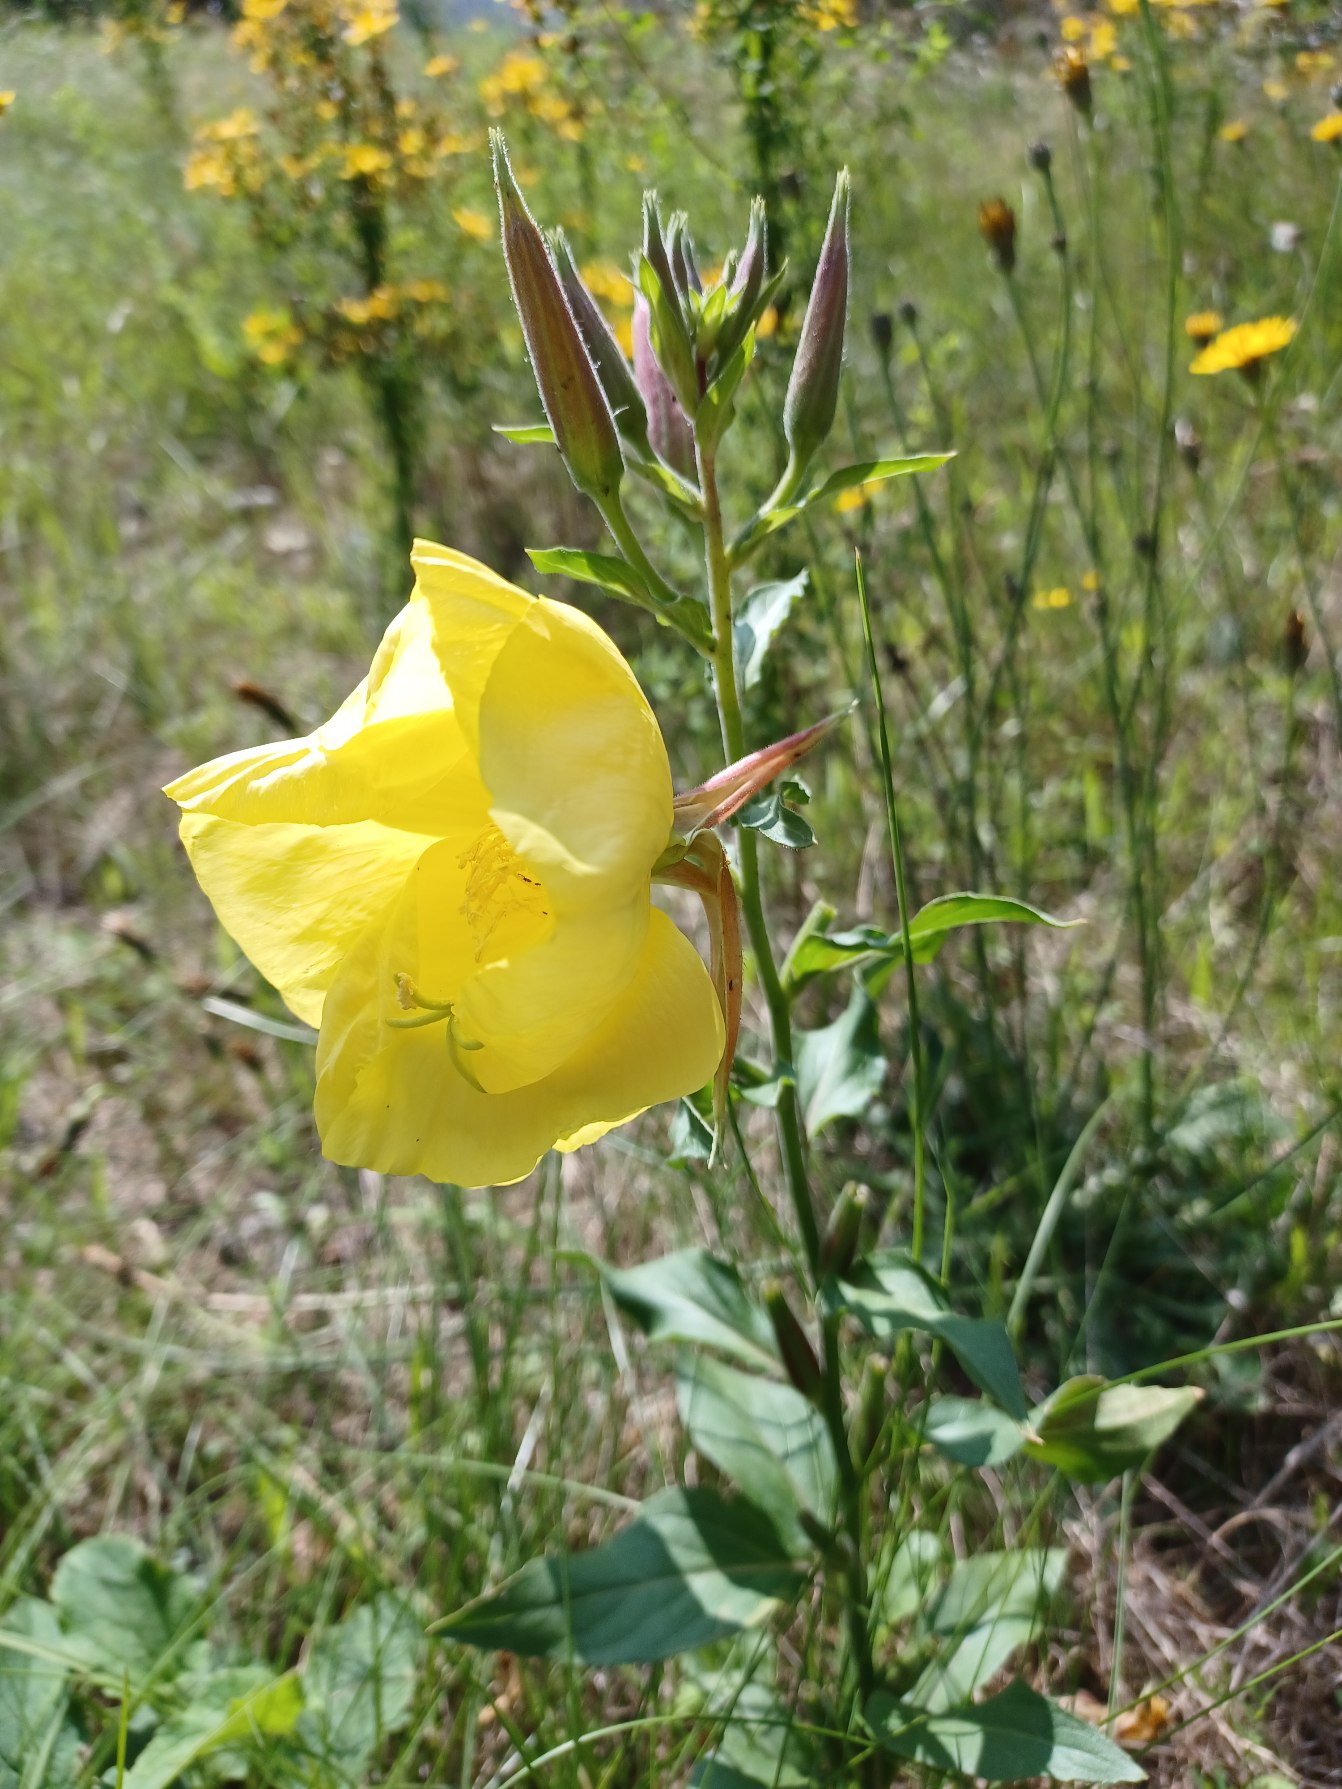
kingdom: Plantae
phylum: Tracheophyta
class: Magnoliopsida
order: Myrtales
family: Onagraceae
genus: Oenothera
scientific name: Oenothera glazioviana
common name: Kæmpe-natlys
